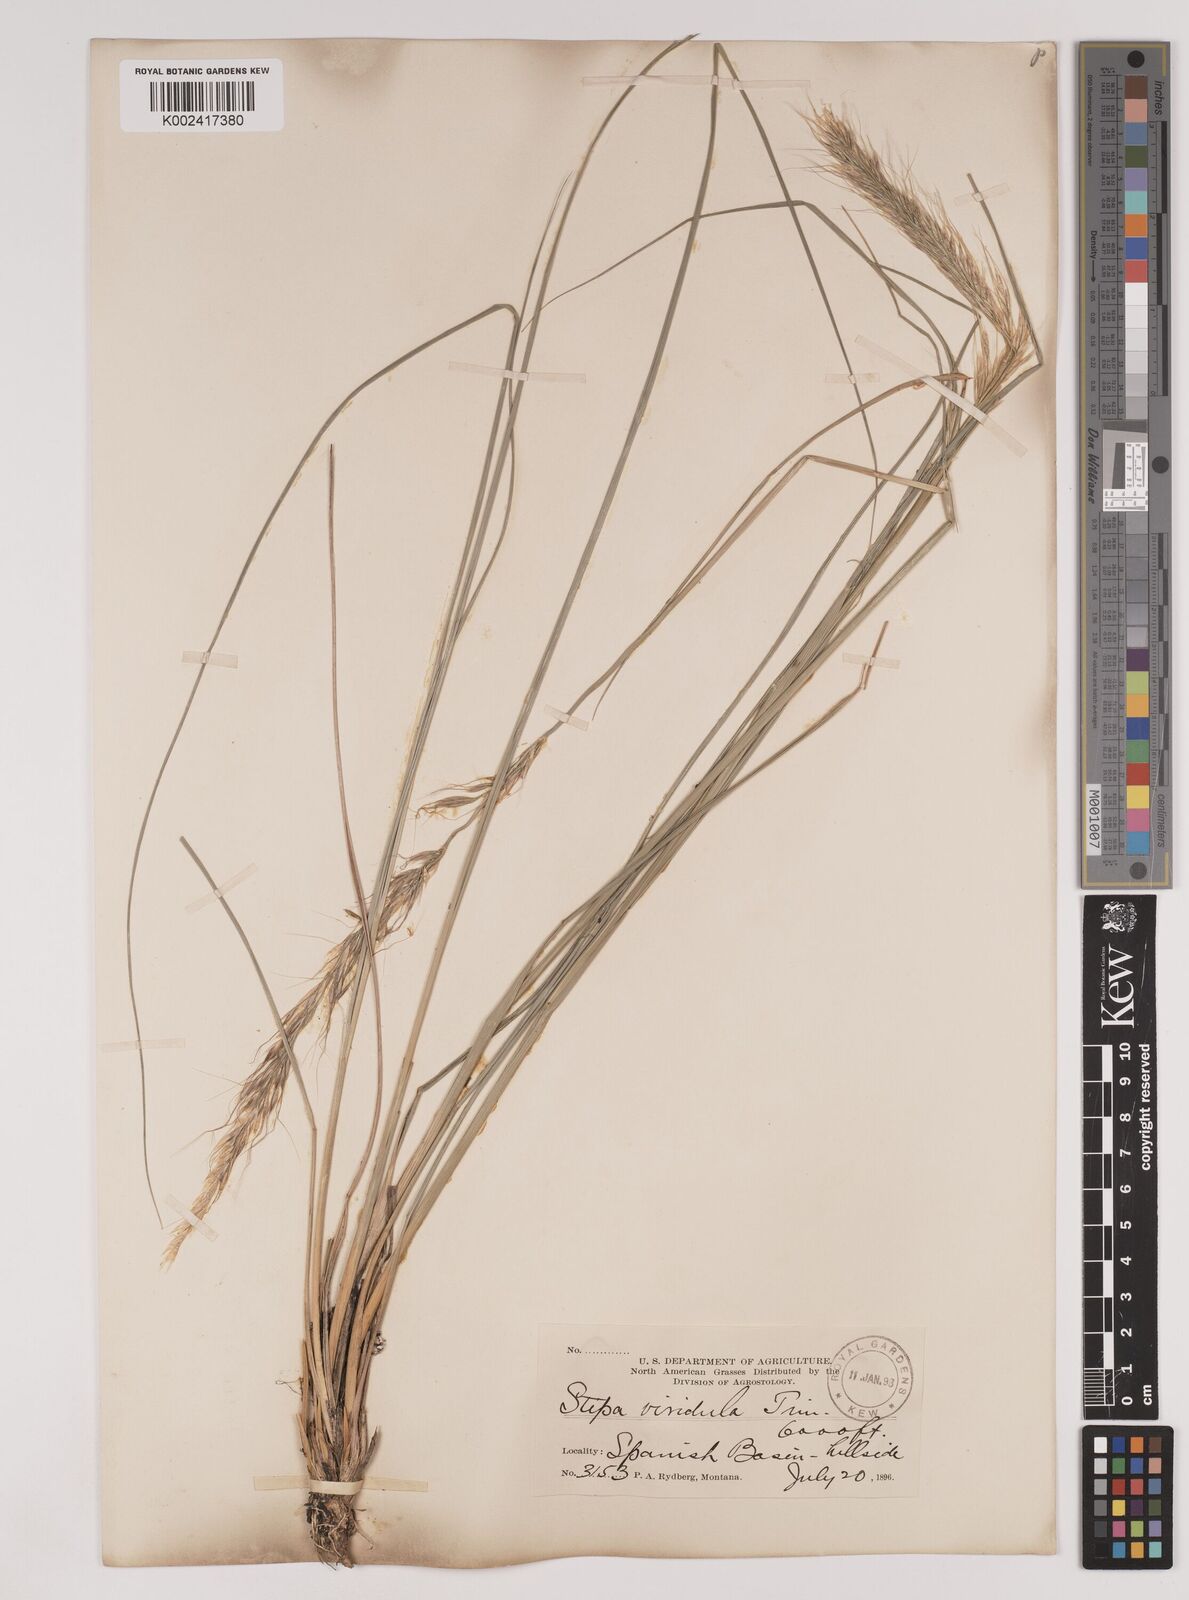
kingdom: Plantae
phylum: Tracheophyta
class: Liliopsida
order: Poales
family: Poaceae
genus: Nassella
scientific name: Nassella viridula
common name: Green needlegrass
